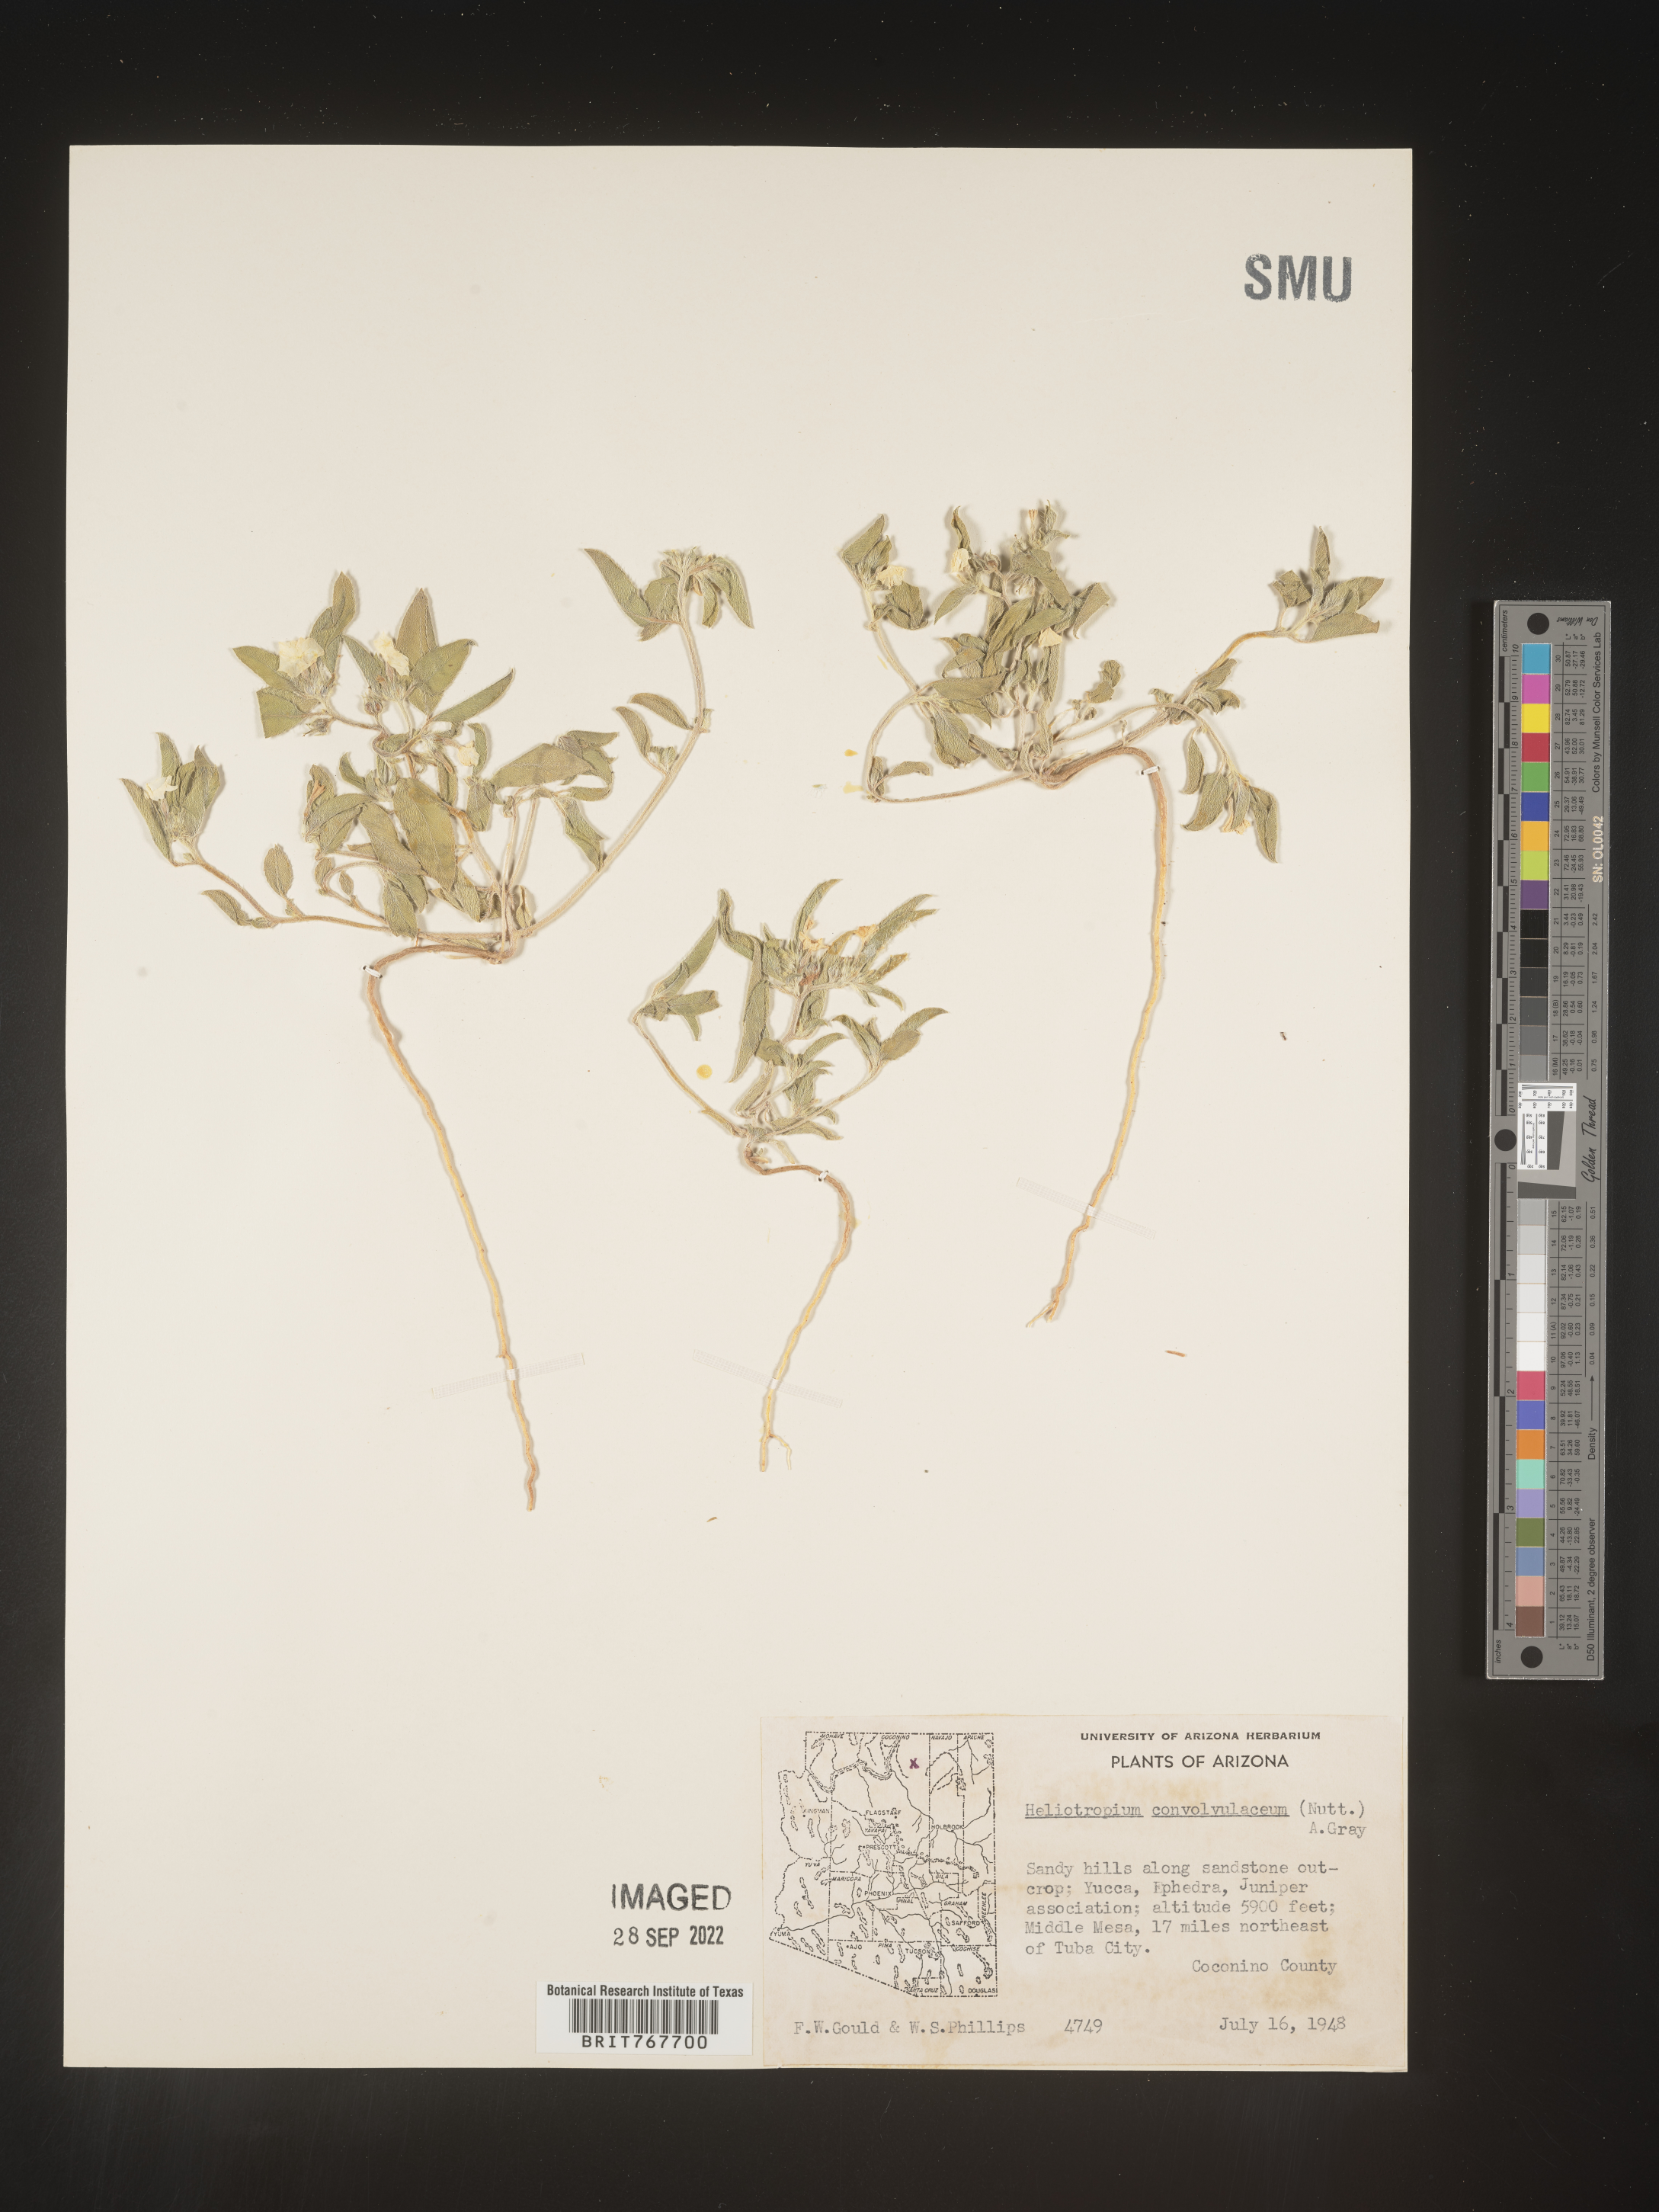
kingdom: Plantae
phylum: Tracheophyta
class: Magnoliopsida
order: Boraginales
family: Heliotropiaceae
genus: Heliotropium
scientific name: Heliotropium
